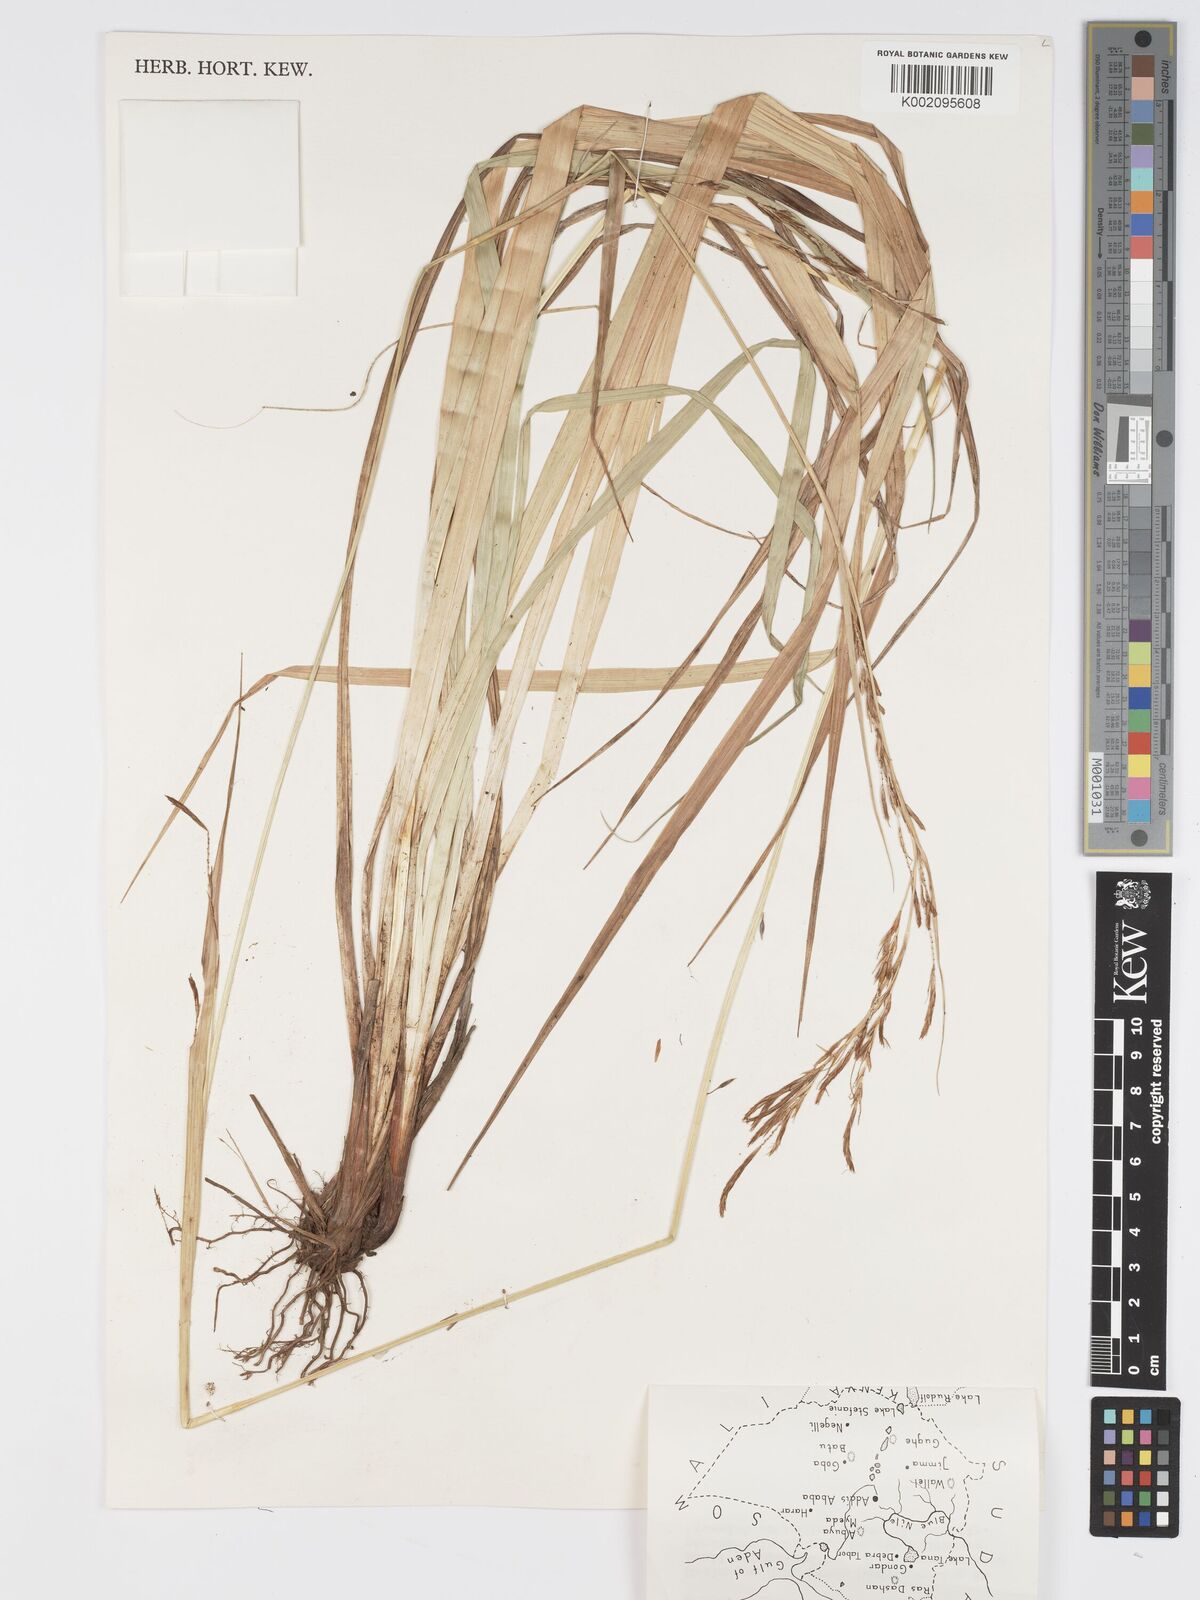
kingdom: Plantae
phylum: Tracheophyta
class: Liliopsida
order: Poales
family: Cyperaceae
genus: Carex
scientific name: Carex johnstonii
